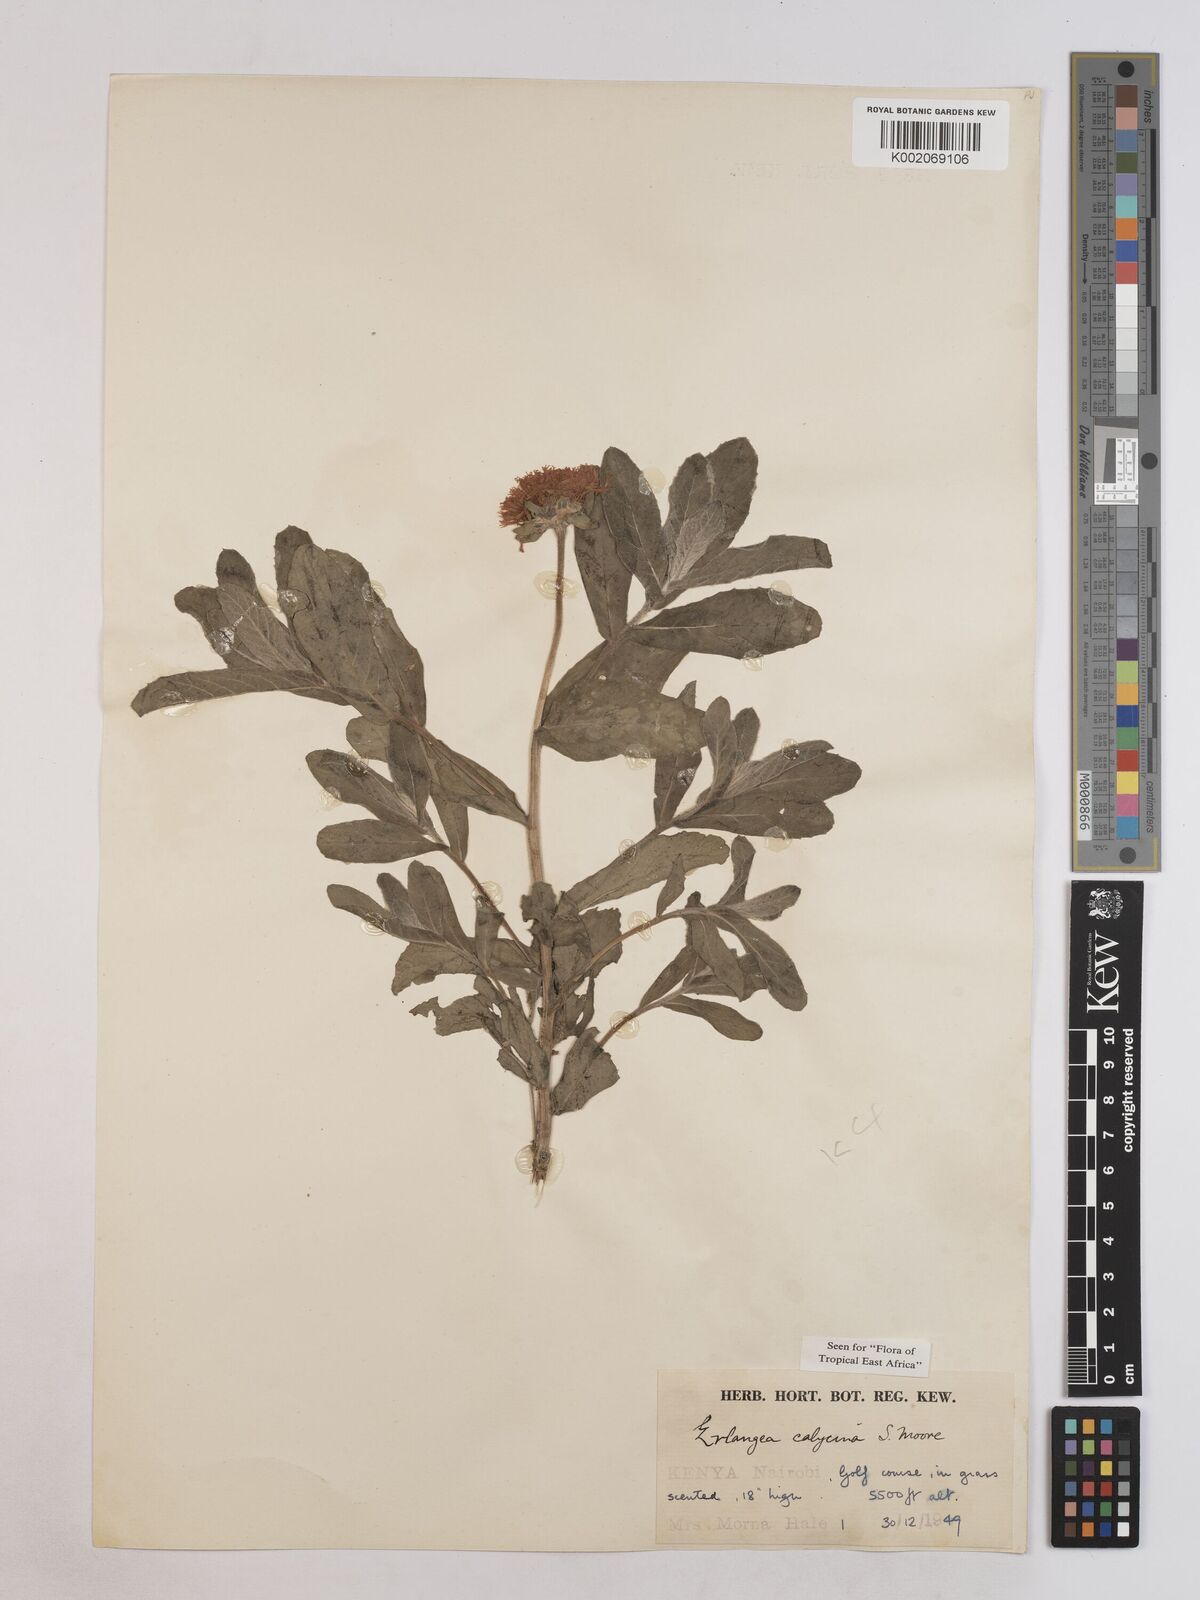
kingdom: Plantae
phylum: Tracheophyta
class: Magnoliopsida
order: Asterales
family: Asteraceae
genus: Erlangea
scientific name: Erlangea calycina
